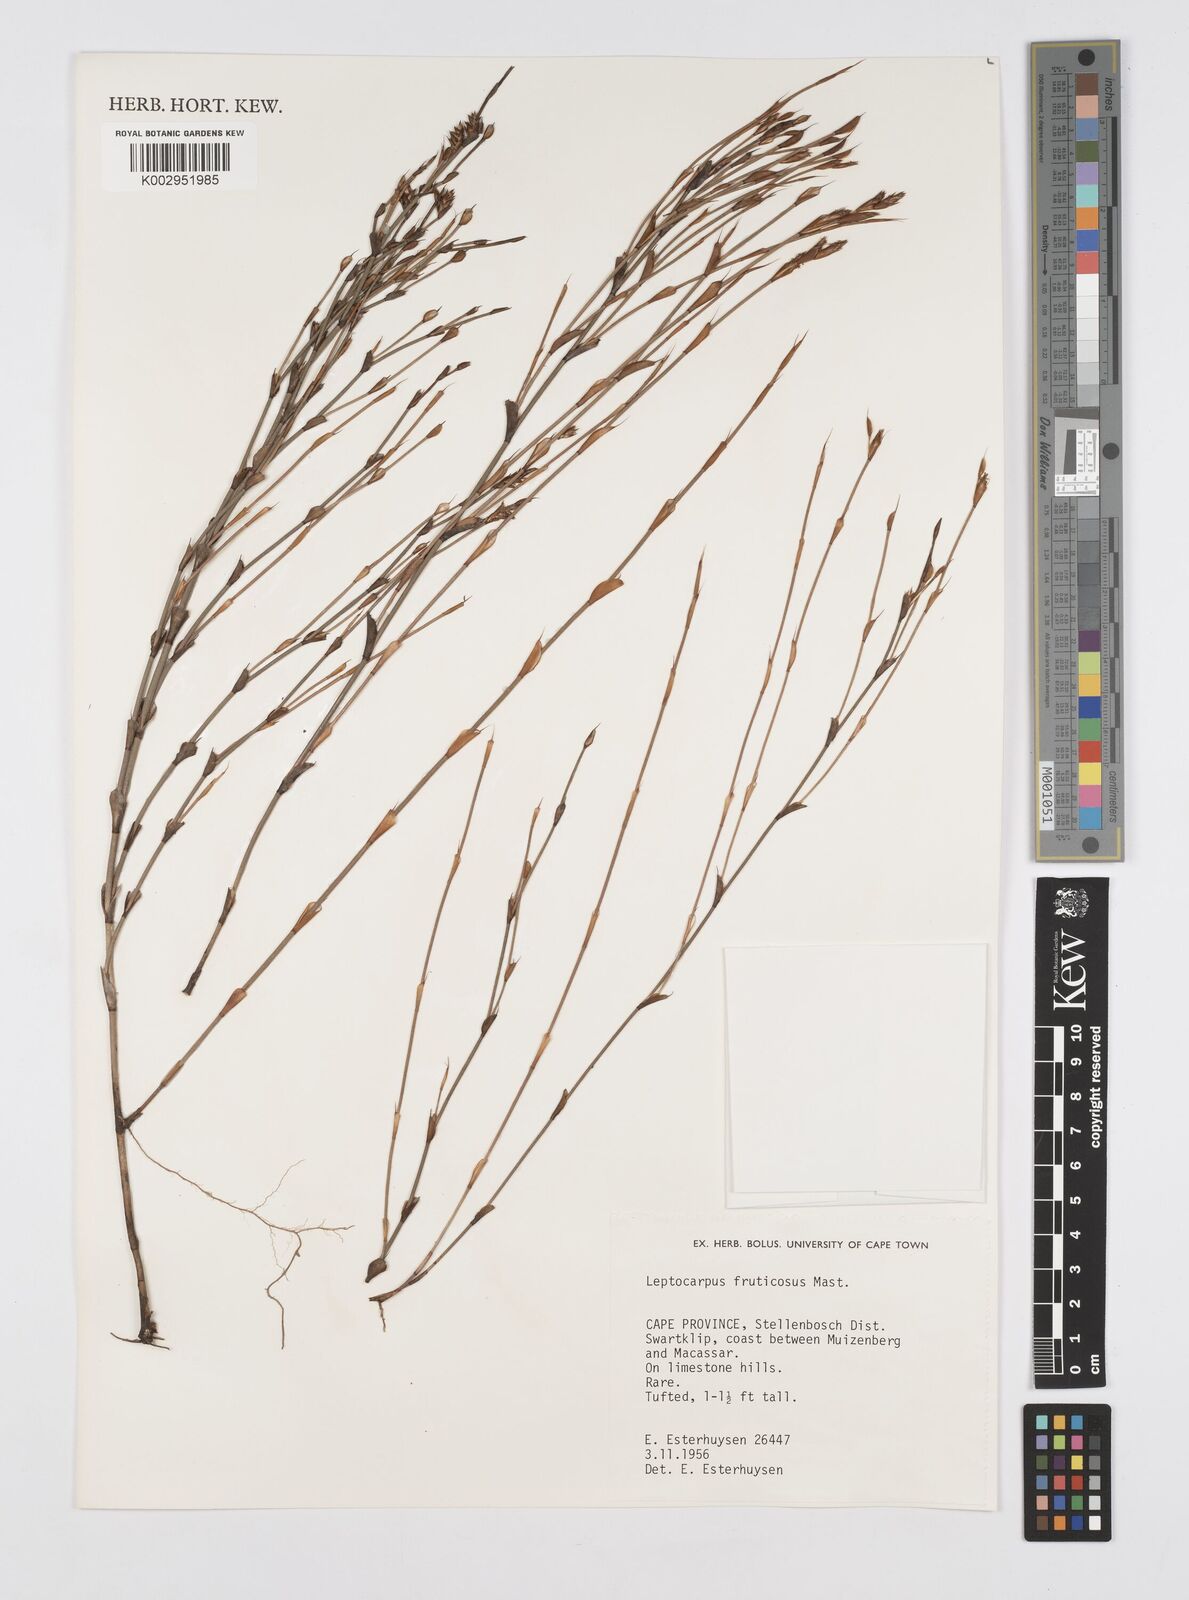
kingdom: Plantae
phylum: Tracheophyta
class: Liliopsida
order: Poales
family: Restionaceae
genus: Rhodocoma
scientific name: Rhodocoma fruticosa
